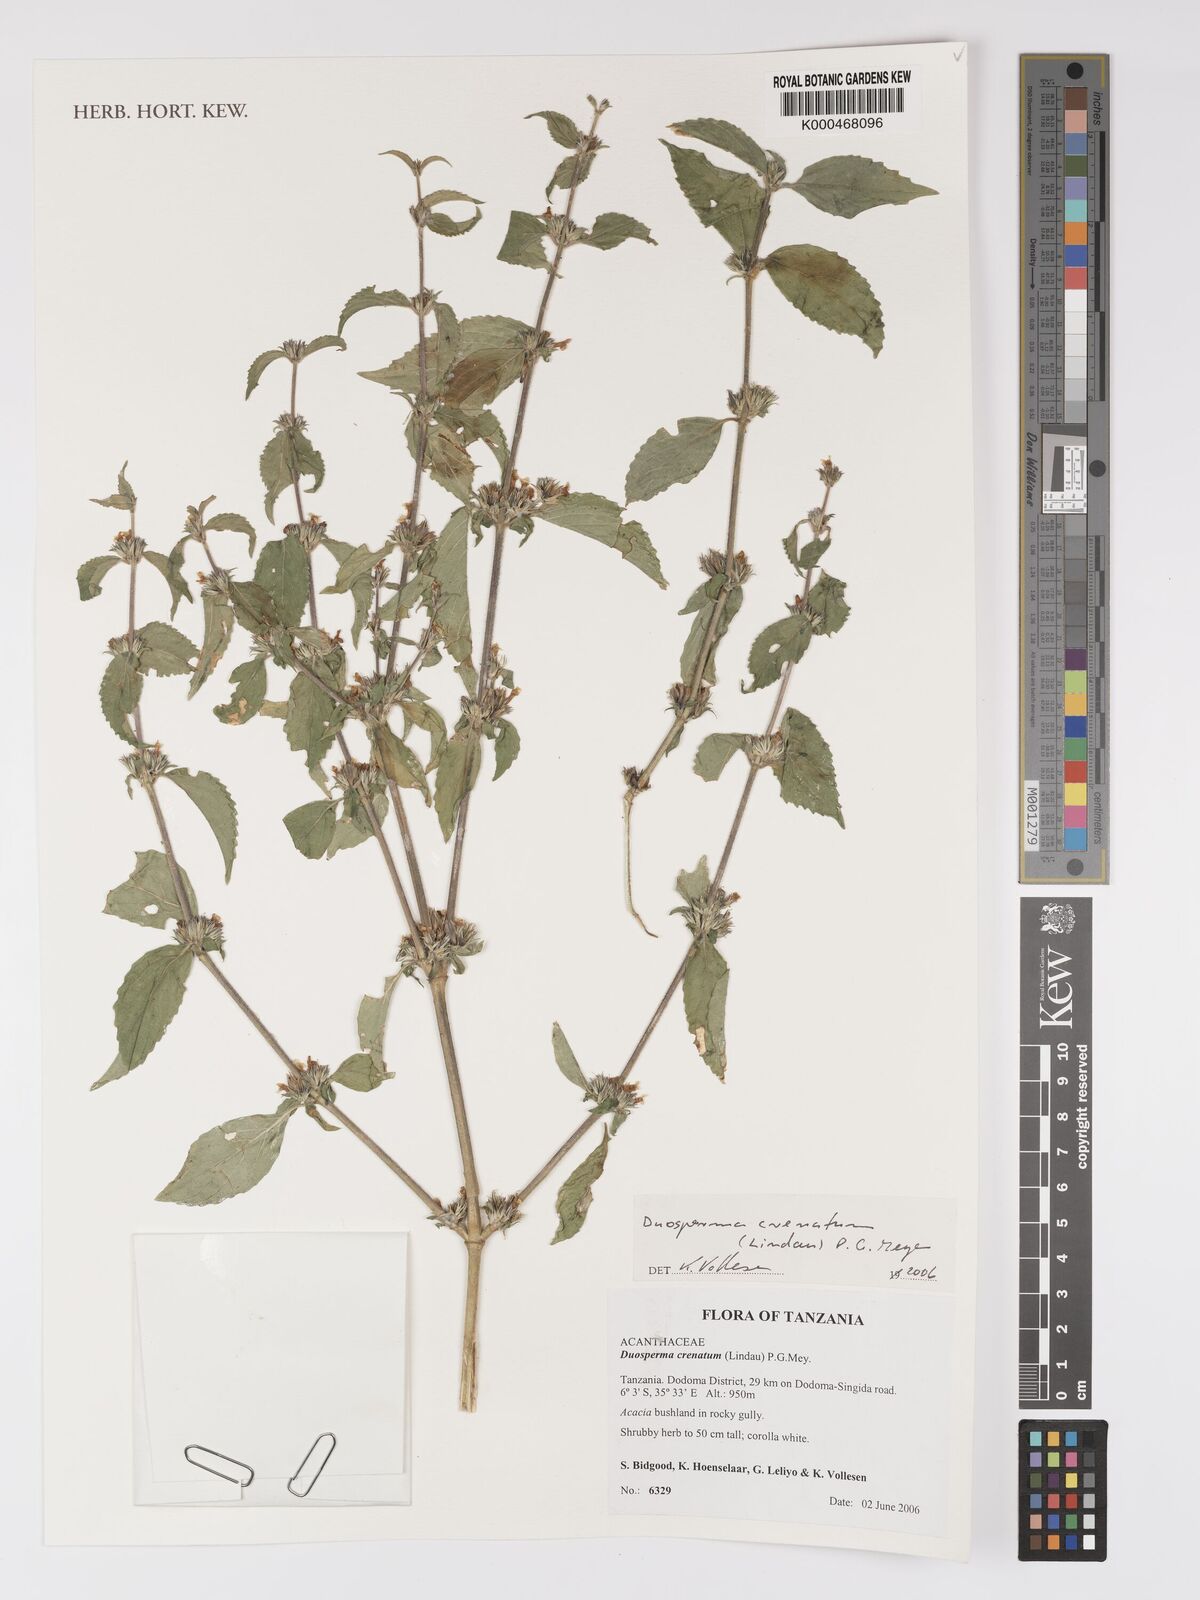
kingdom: Plantae
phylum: Tracheophyta
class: Magnoliopsida
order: Lamiales
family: Acanthaceae
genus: Duosperma
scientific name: Duosperma crenatum
